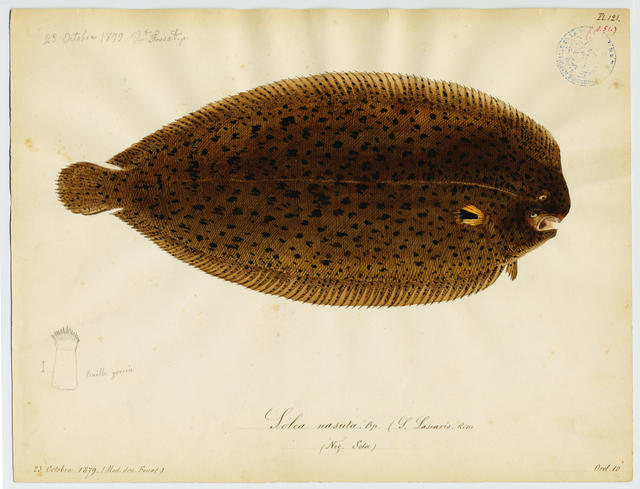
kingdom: Animalia
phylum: Chordata
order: Pleuronectiformes
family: Soleidae
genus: Solea
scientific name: Solea solea
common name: Sole
